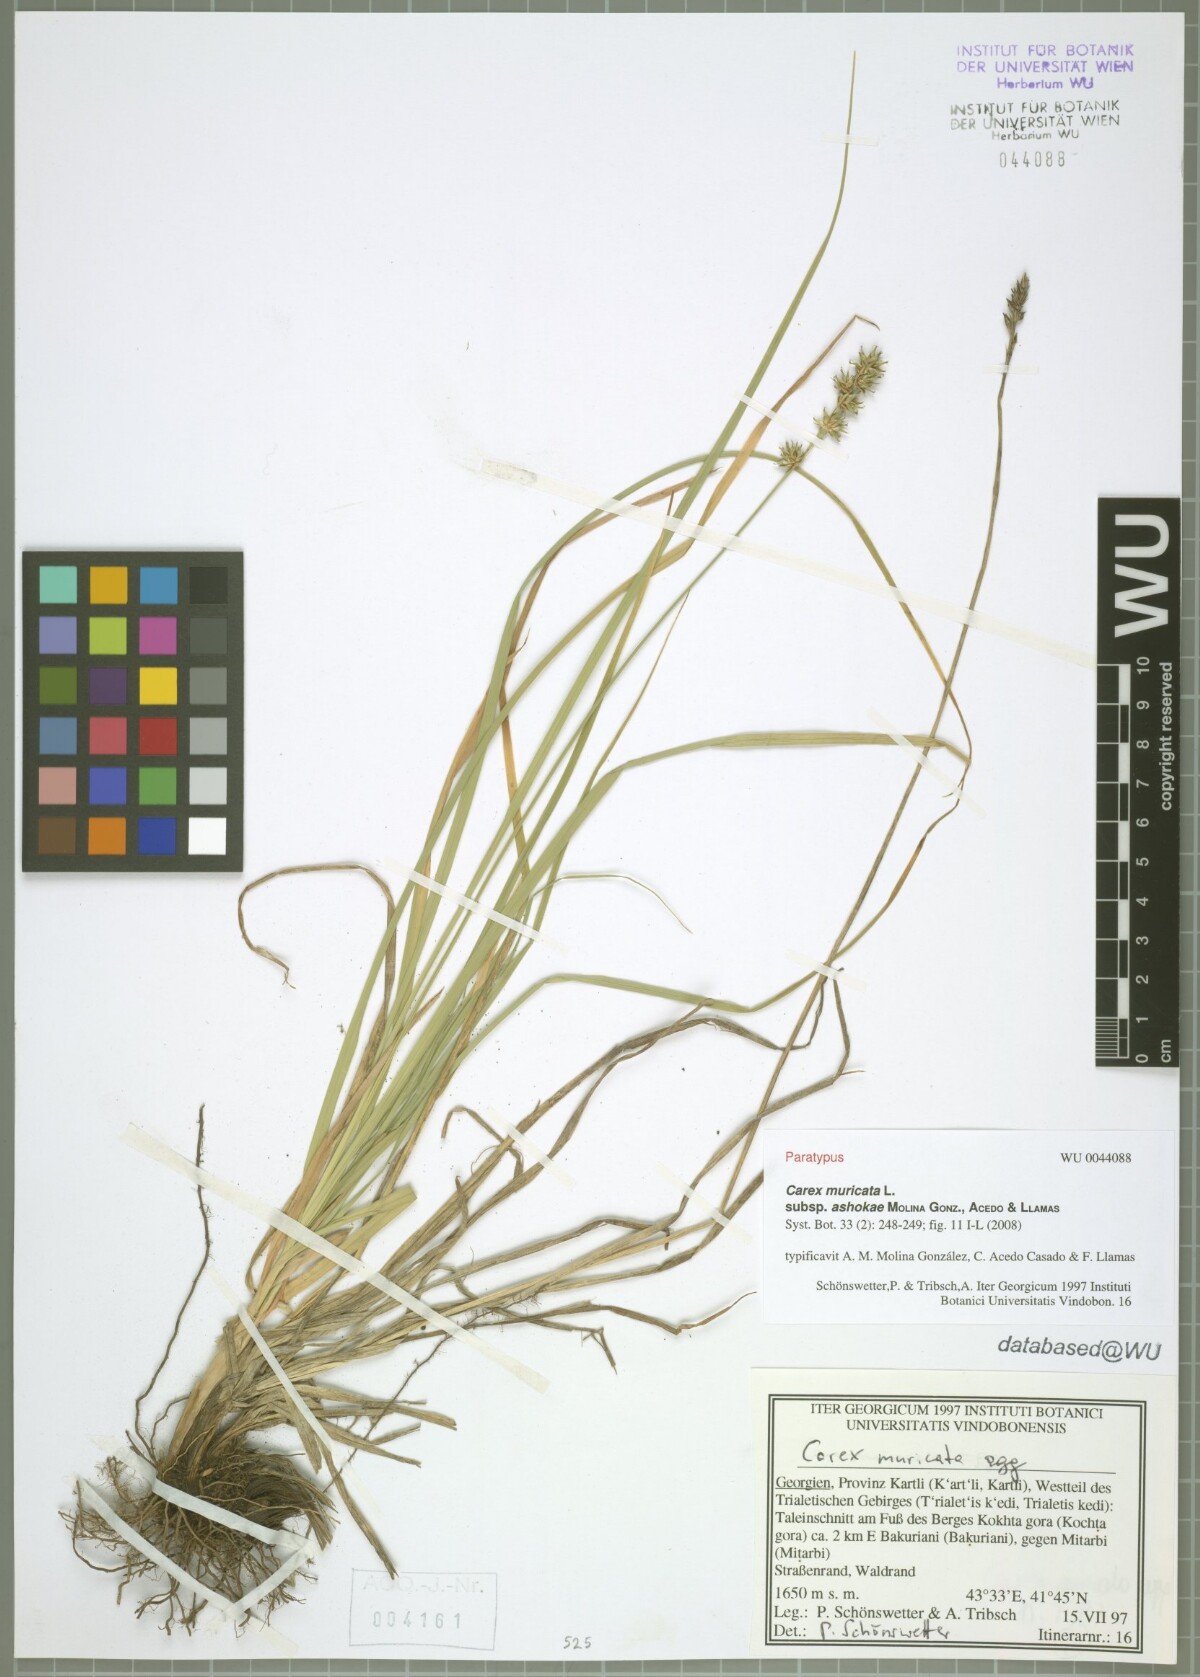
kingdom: Plantae
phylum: Tracheophyta
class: Liliopsida
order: Poales
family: Cyperaceae
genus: Carex
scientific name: Carex muricata
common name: Rough sedge
